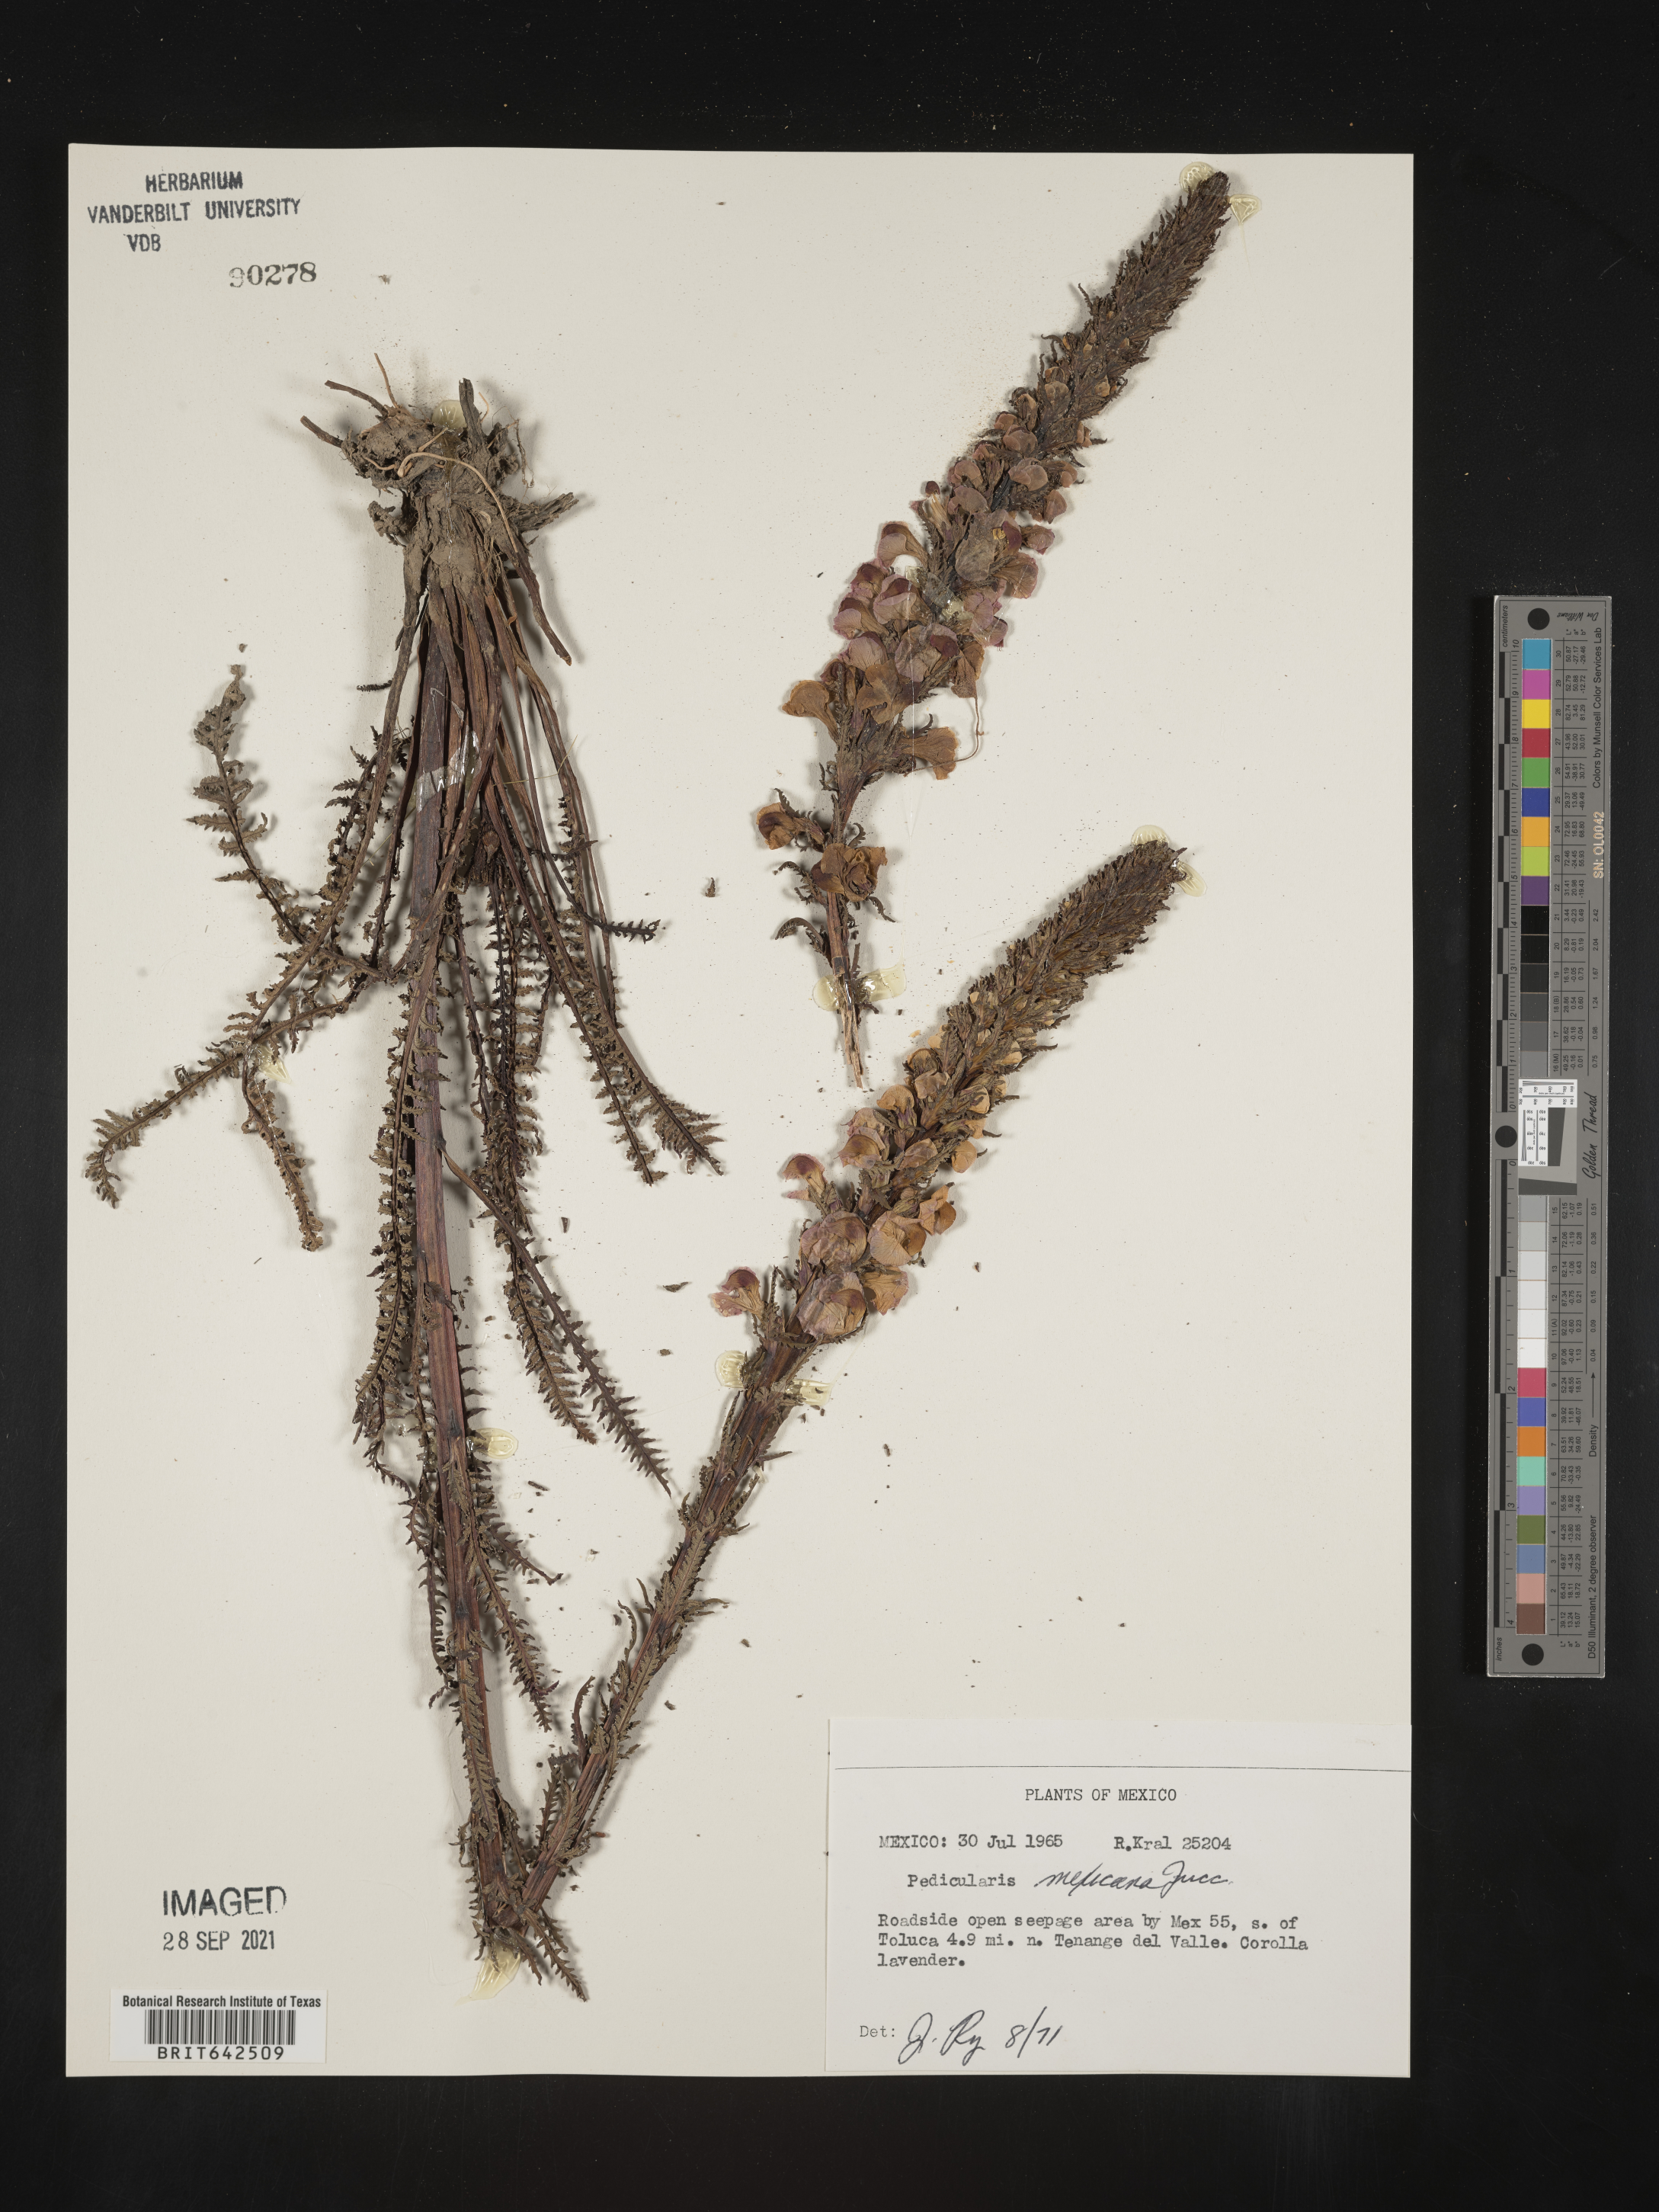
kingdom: Plantae
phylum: Tracheophyta
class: Magnoliopsida
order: Lamiales
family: Orobanchaceae
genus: Pedicularis
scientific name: Pedicularis
